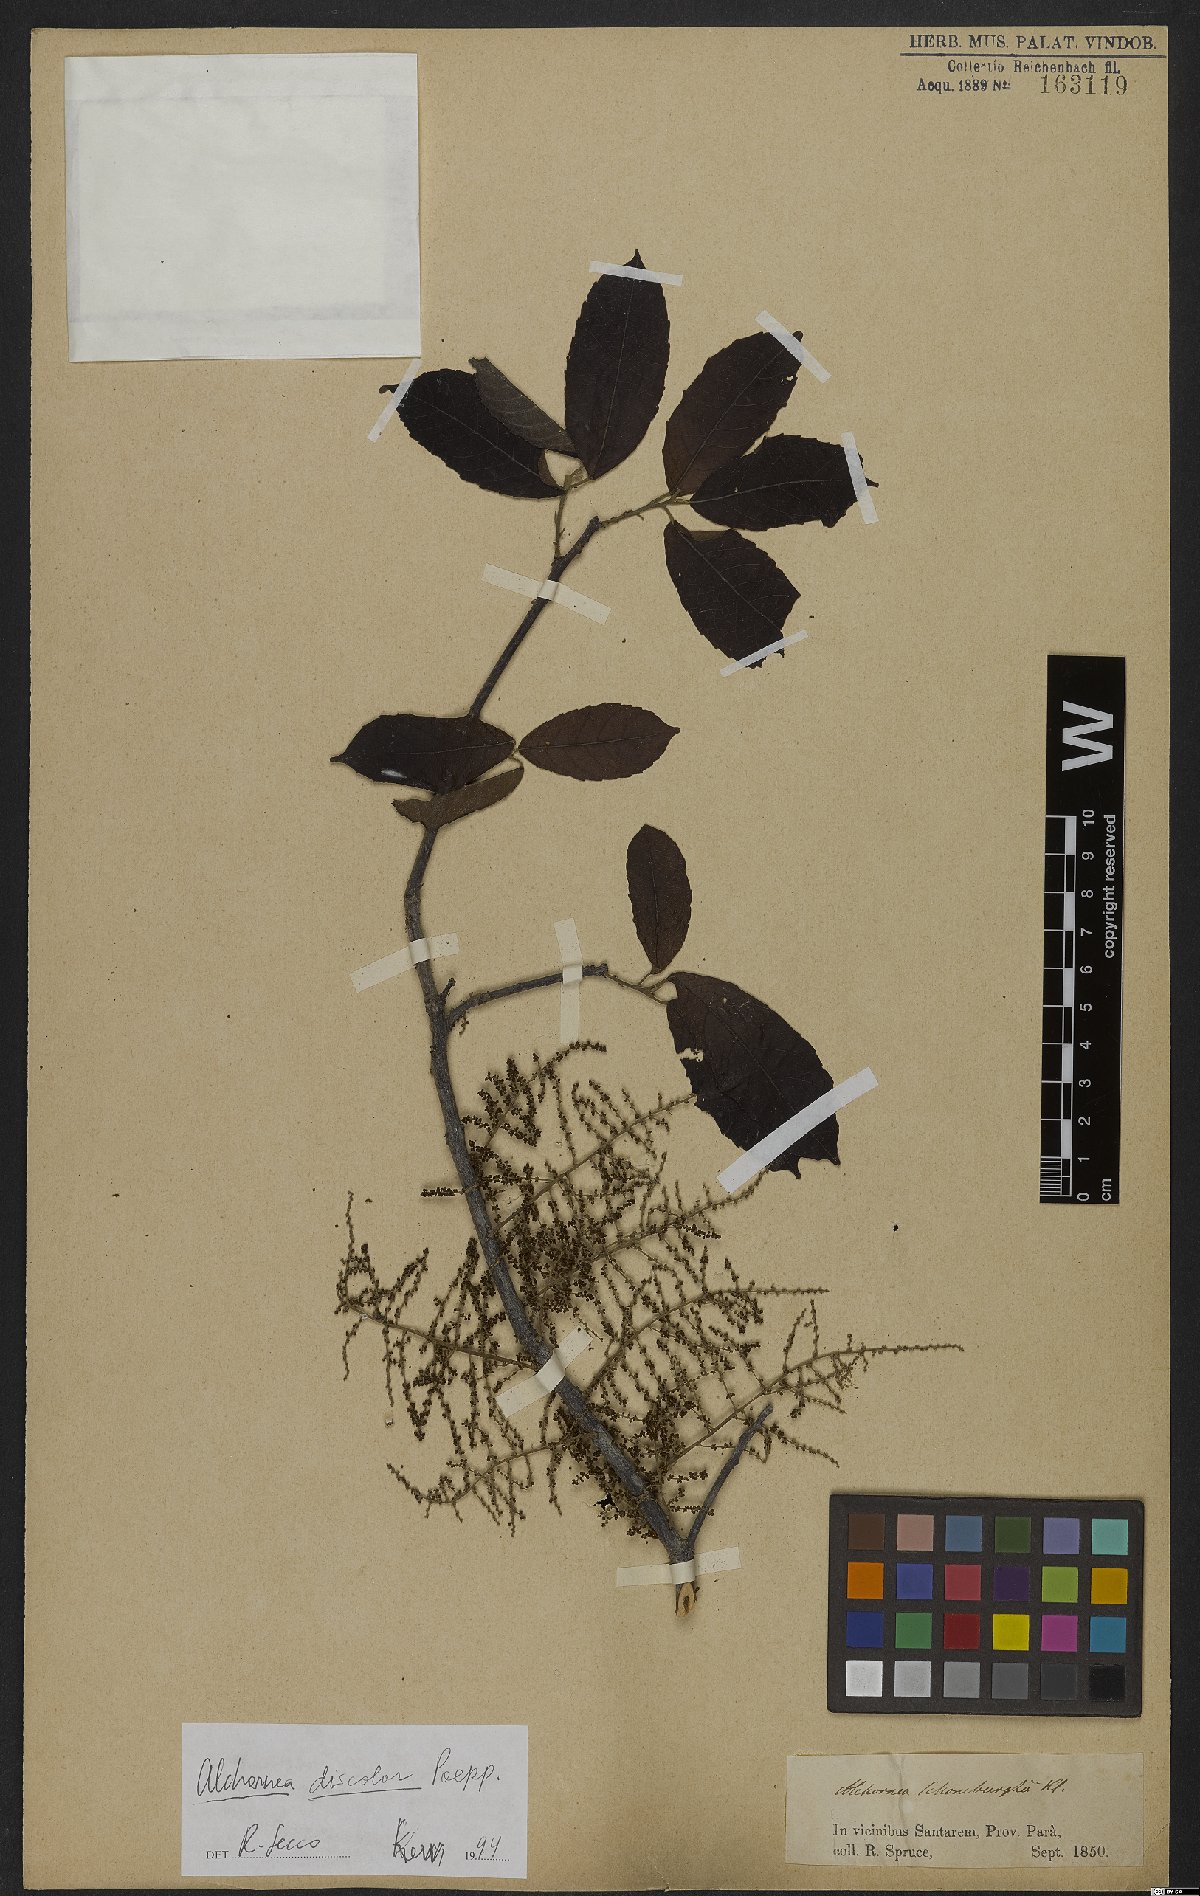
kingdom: Plantae
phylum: Tracheophyta
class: Magnoliopsida
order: Malpighiales
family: Euphorbiaceae
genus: Alchornea
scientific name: Alchornea discolor
